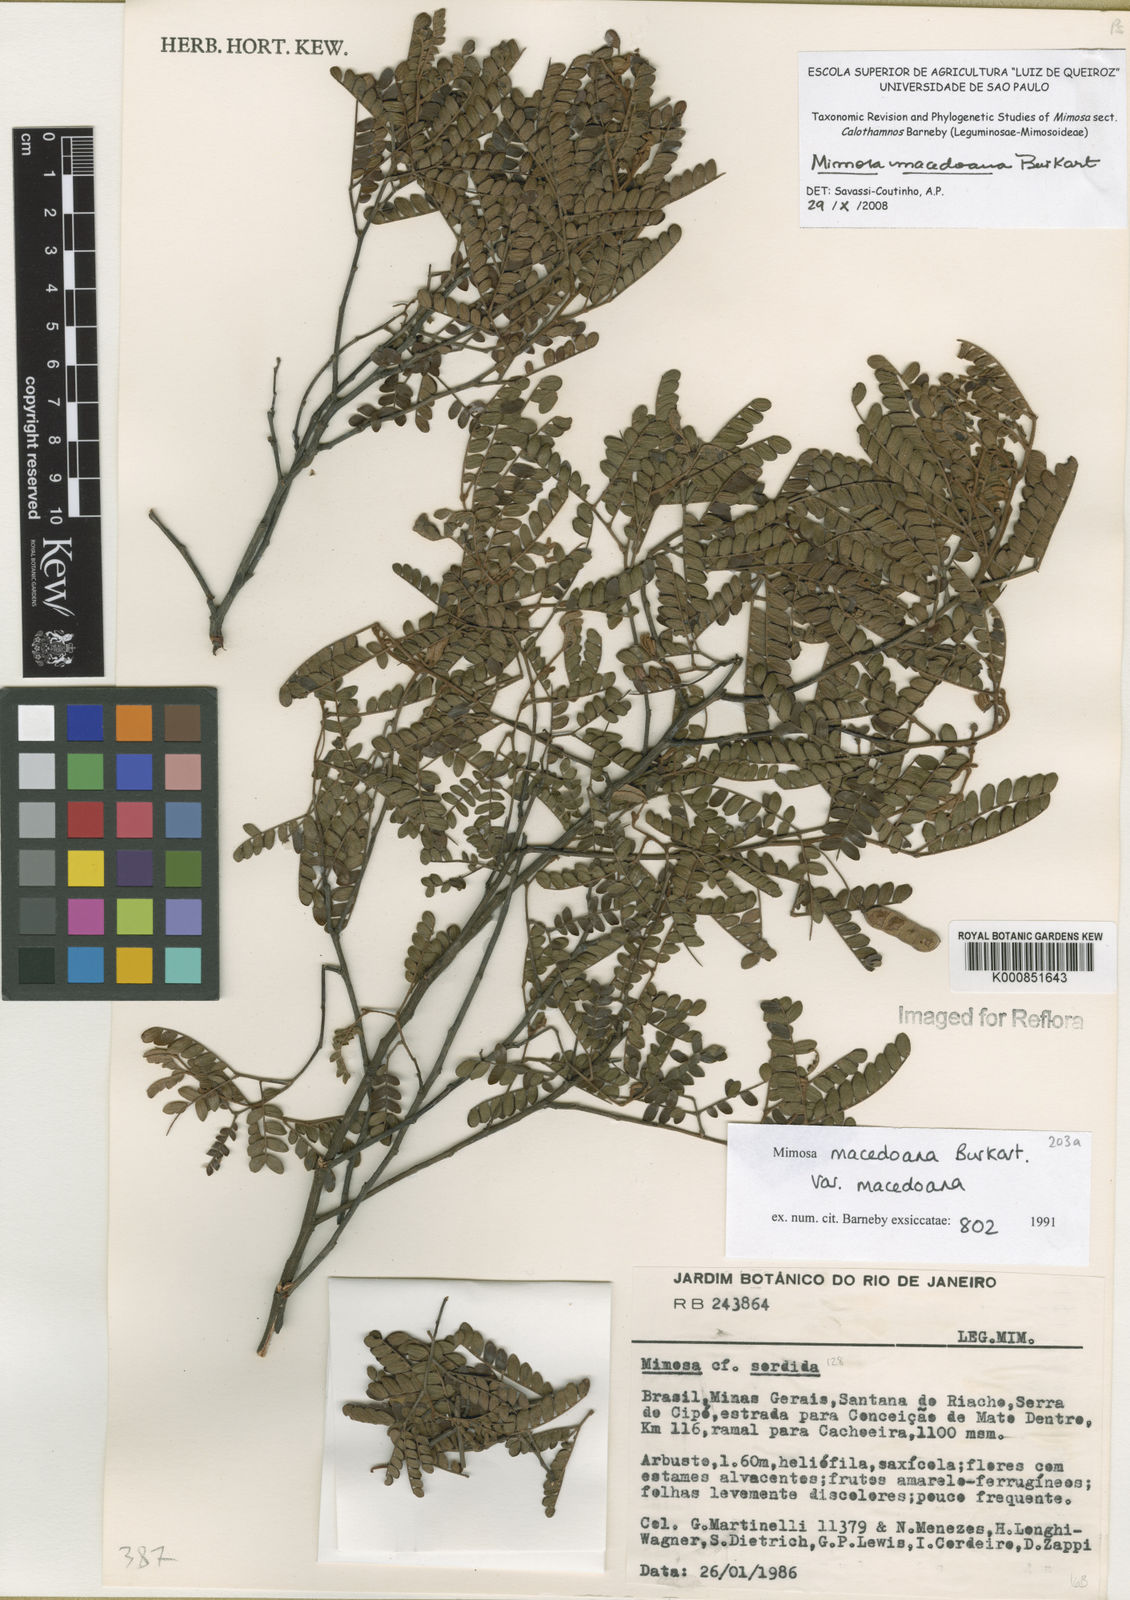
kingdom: Plantae
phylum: Tracheophyta
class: Magnoliopsida
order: Fabales
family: Fabaceae
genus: Mimosa
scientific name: Mimosa macedoana
